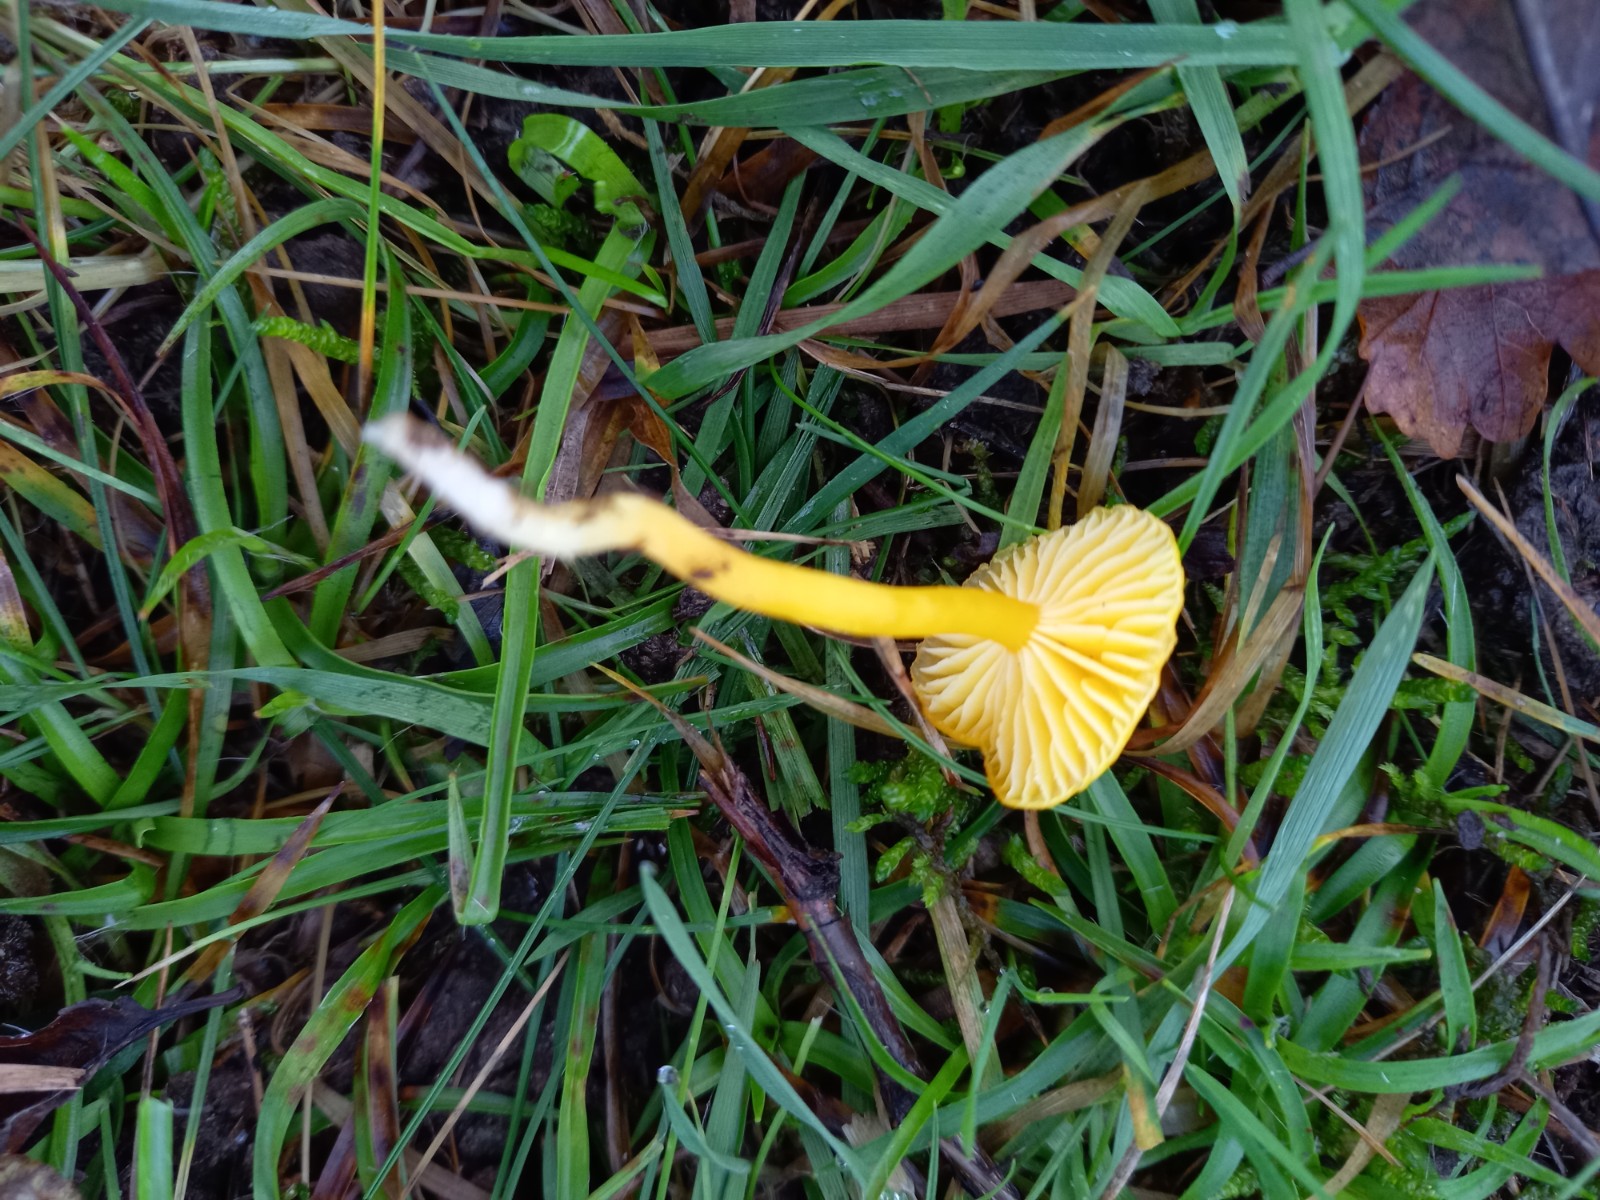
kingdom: Fungi
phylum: Basidiomycota
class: Agaricomycetes
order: Agaricales
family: Hygrophoraceae
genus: Hygrocybe
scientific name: Hygrocybe ceracea
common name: voksgul vokshat
